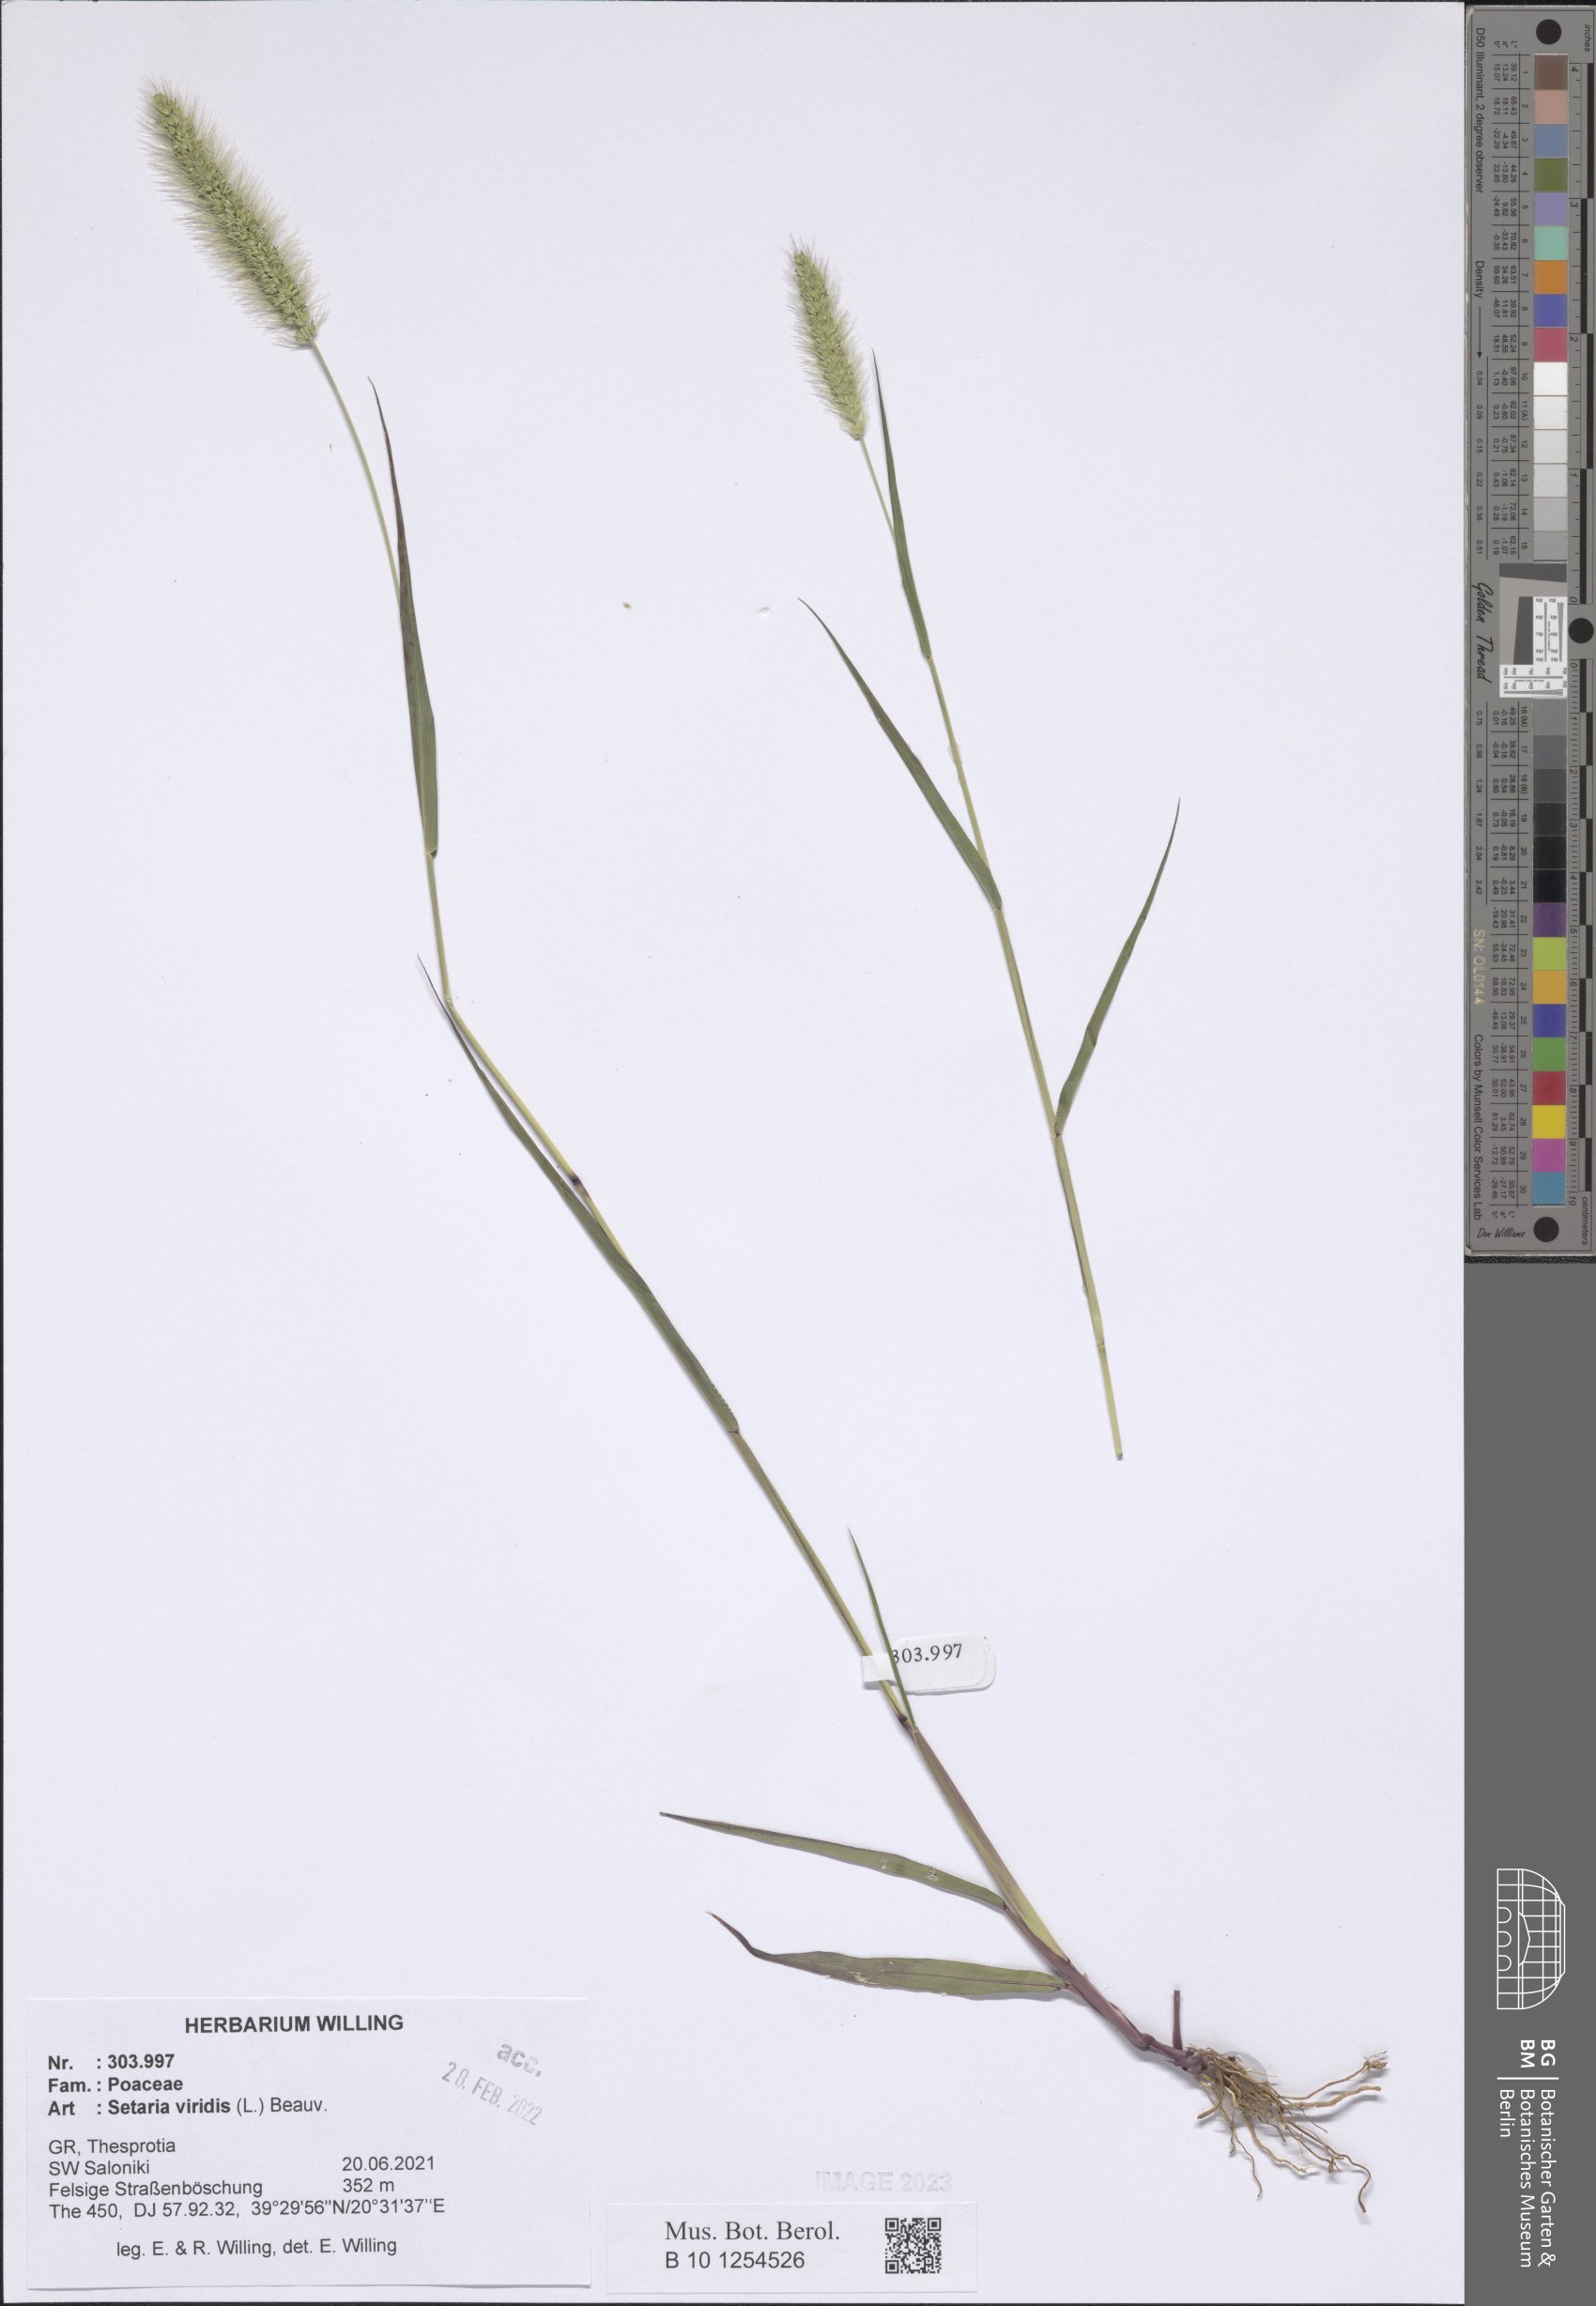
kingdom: Plantae
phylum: Tracheophyta
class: Liliopsida
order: Poales
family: Poaceae
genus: Setaria
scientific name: Setaria viridis
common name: Green bristlegrass
